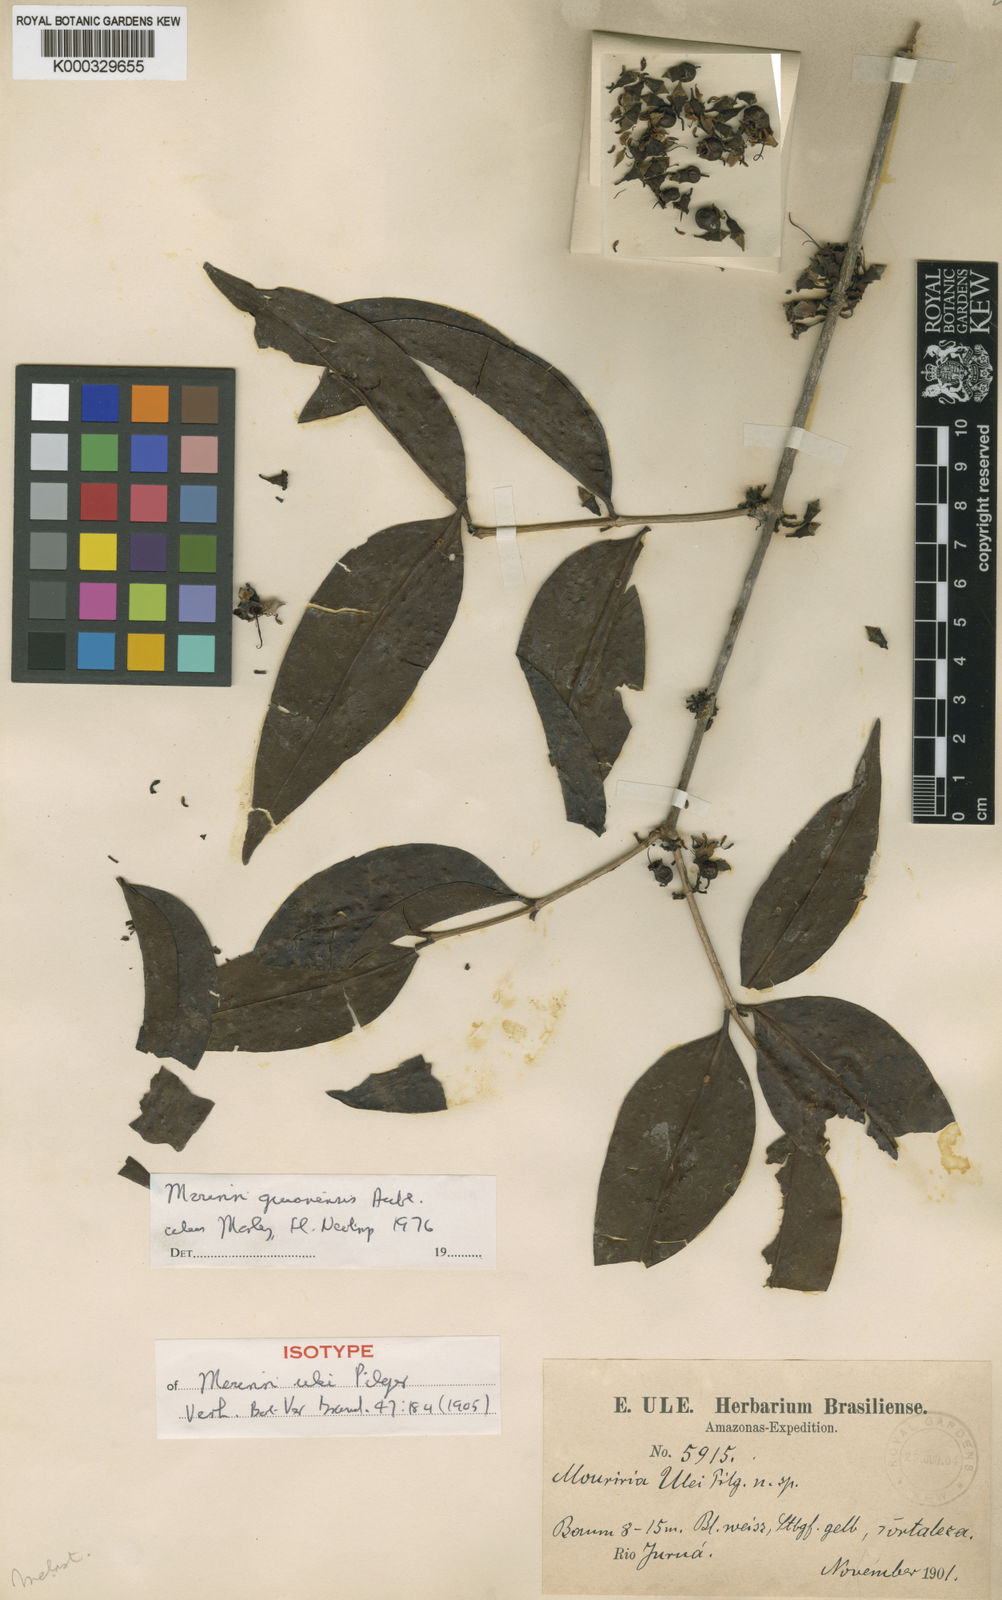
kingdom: Plantae
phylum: Tracheophyta
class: Magnoliopsida
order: Myrtales
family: Melastomataceae
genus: Mouriri
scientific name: Mouriri guianensis
